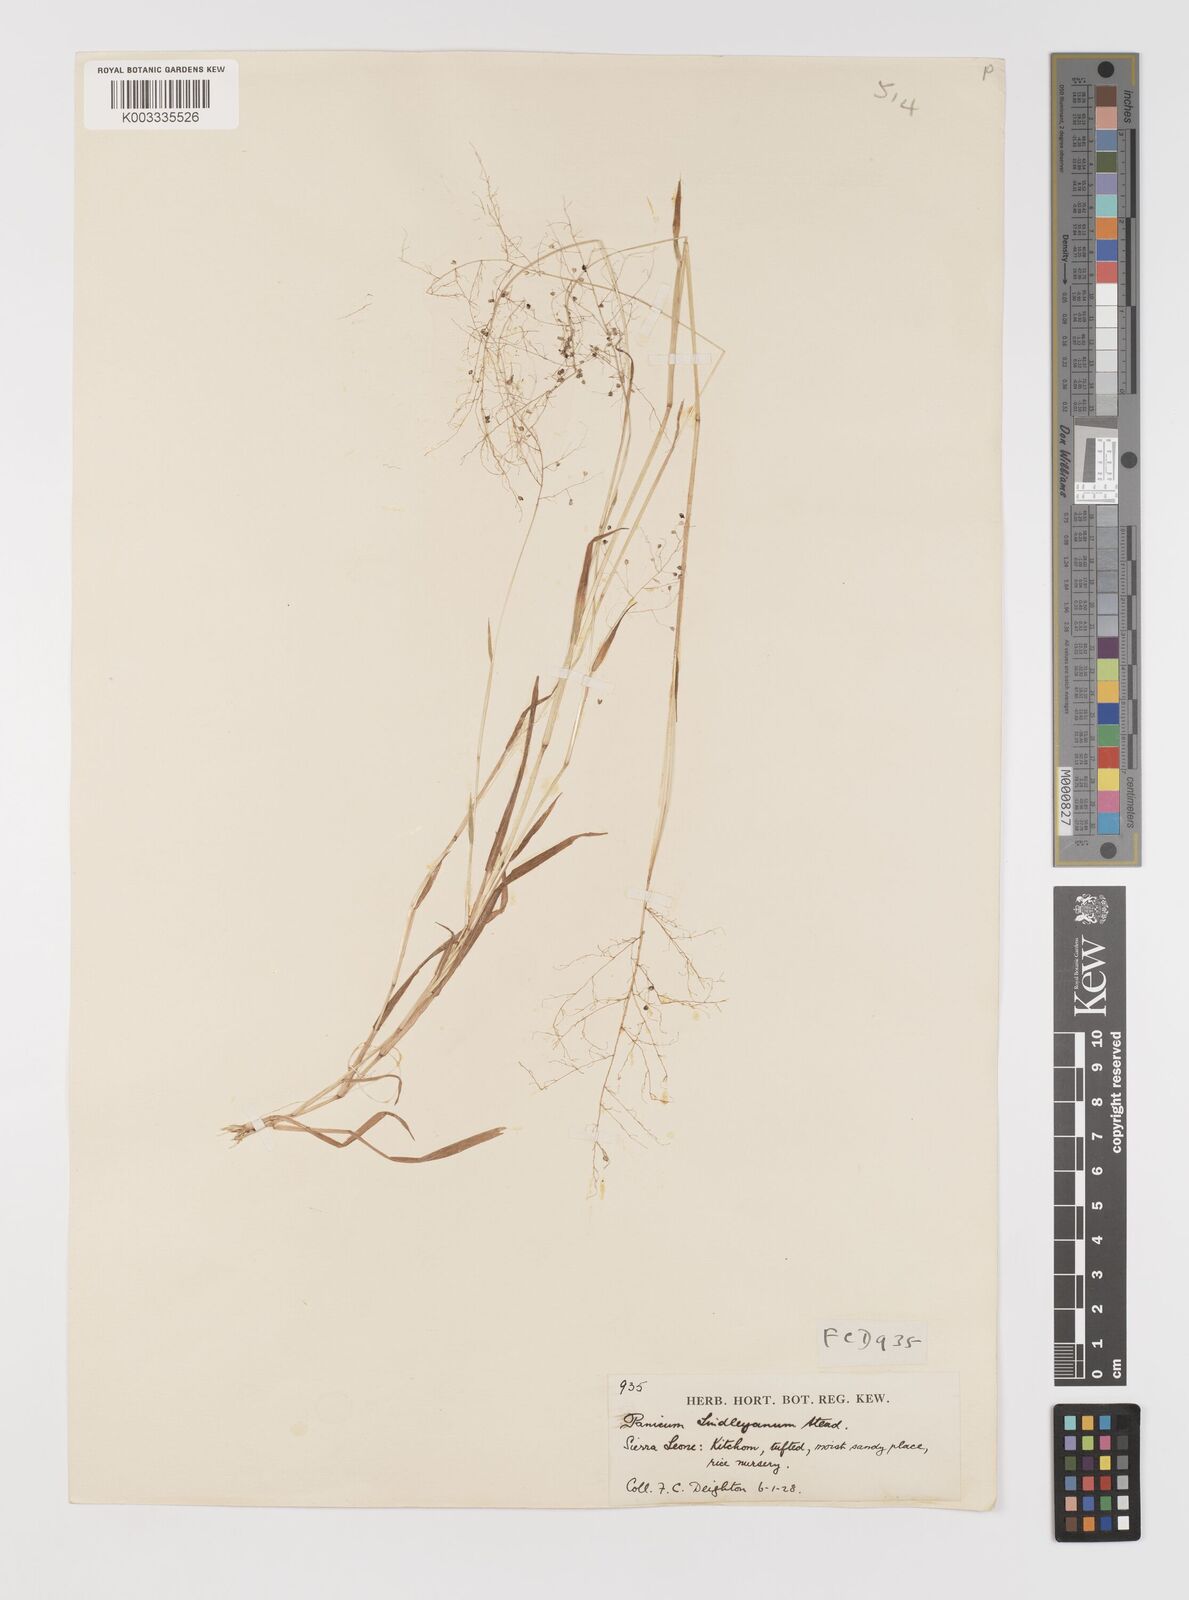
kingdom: Plantae
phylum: Tracheophyta
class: Liliopsida
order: Poales
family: Poaceae
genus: Trichanthecium
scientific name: Trichanthecium tenellum
